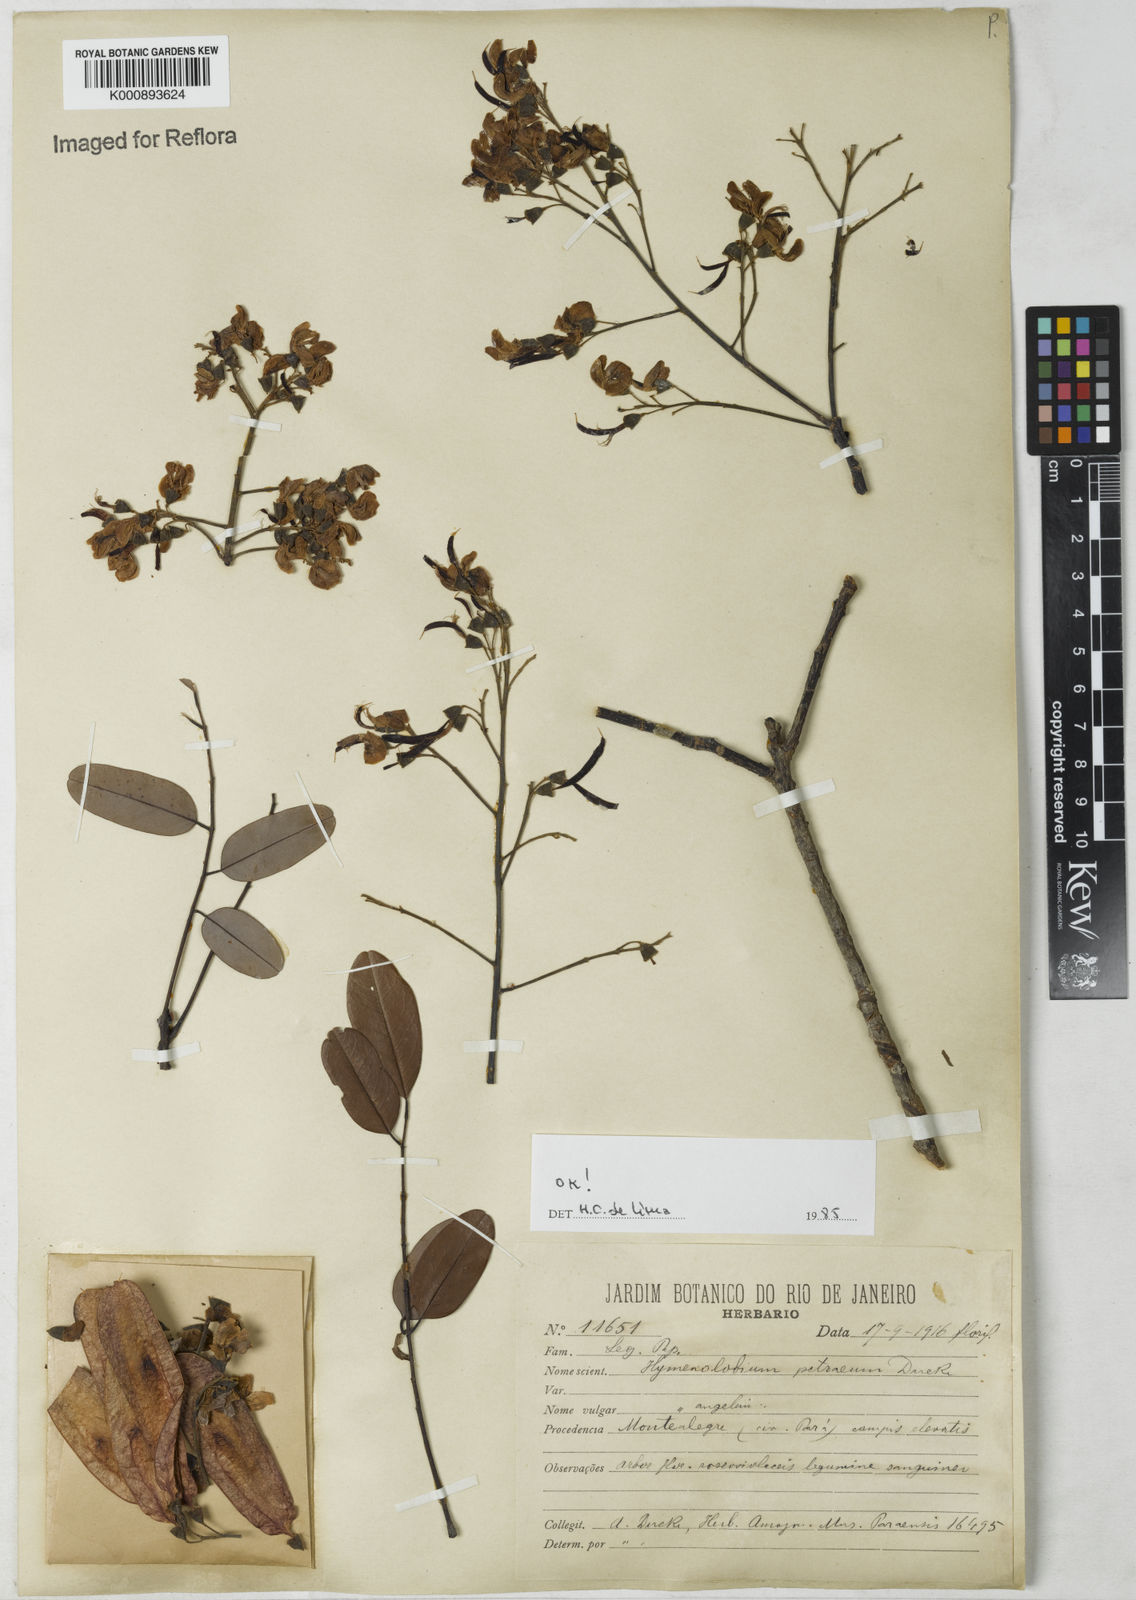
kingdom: Plantae
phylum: Tracheophyta
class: Magnoliopsida
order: Fabales
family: Fabaceae
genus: Hymenolobium
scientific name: Hymenolobium petraeum
